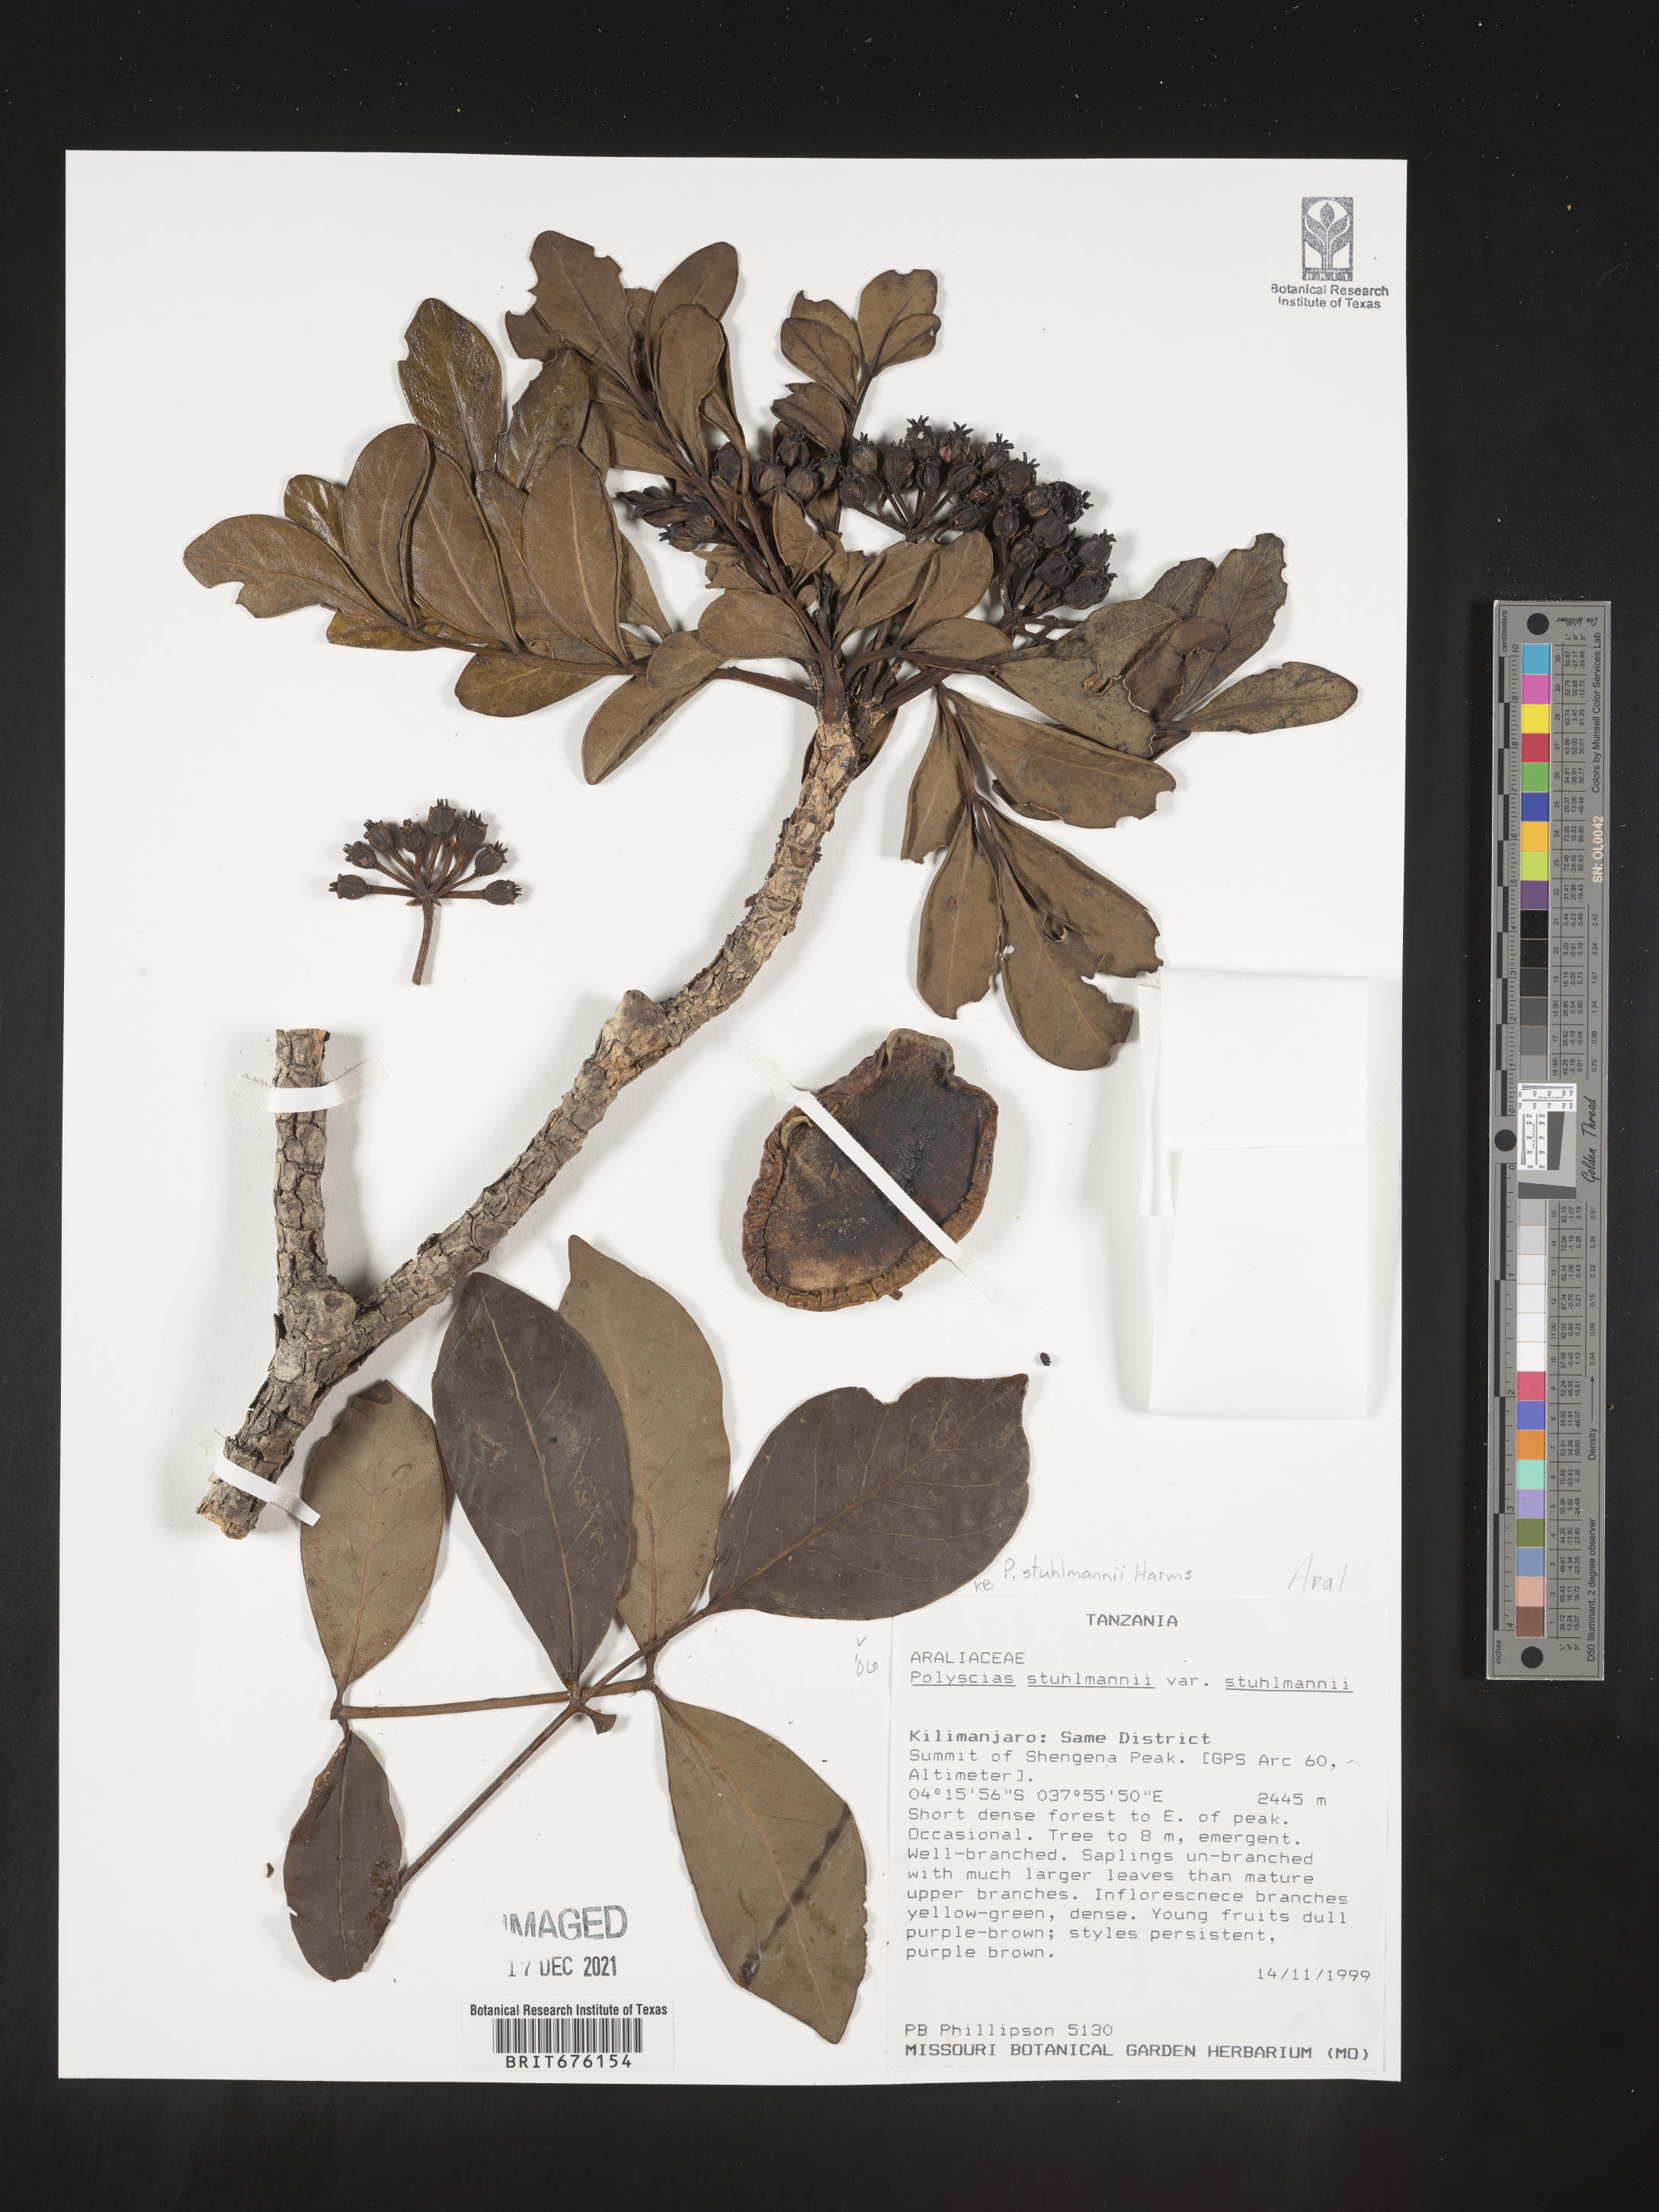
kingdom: Plantae
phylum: Tracheophyta
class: Magnoliopsida
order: Apiales
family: Araliaceae
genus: Polyscias
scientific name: Polyscias stuhlmannii
